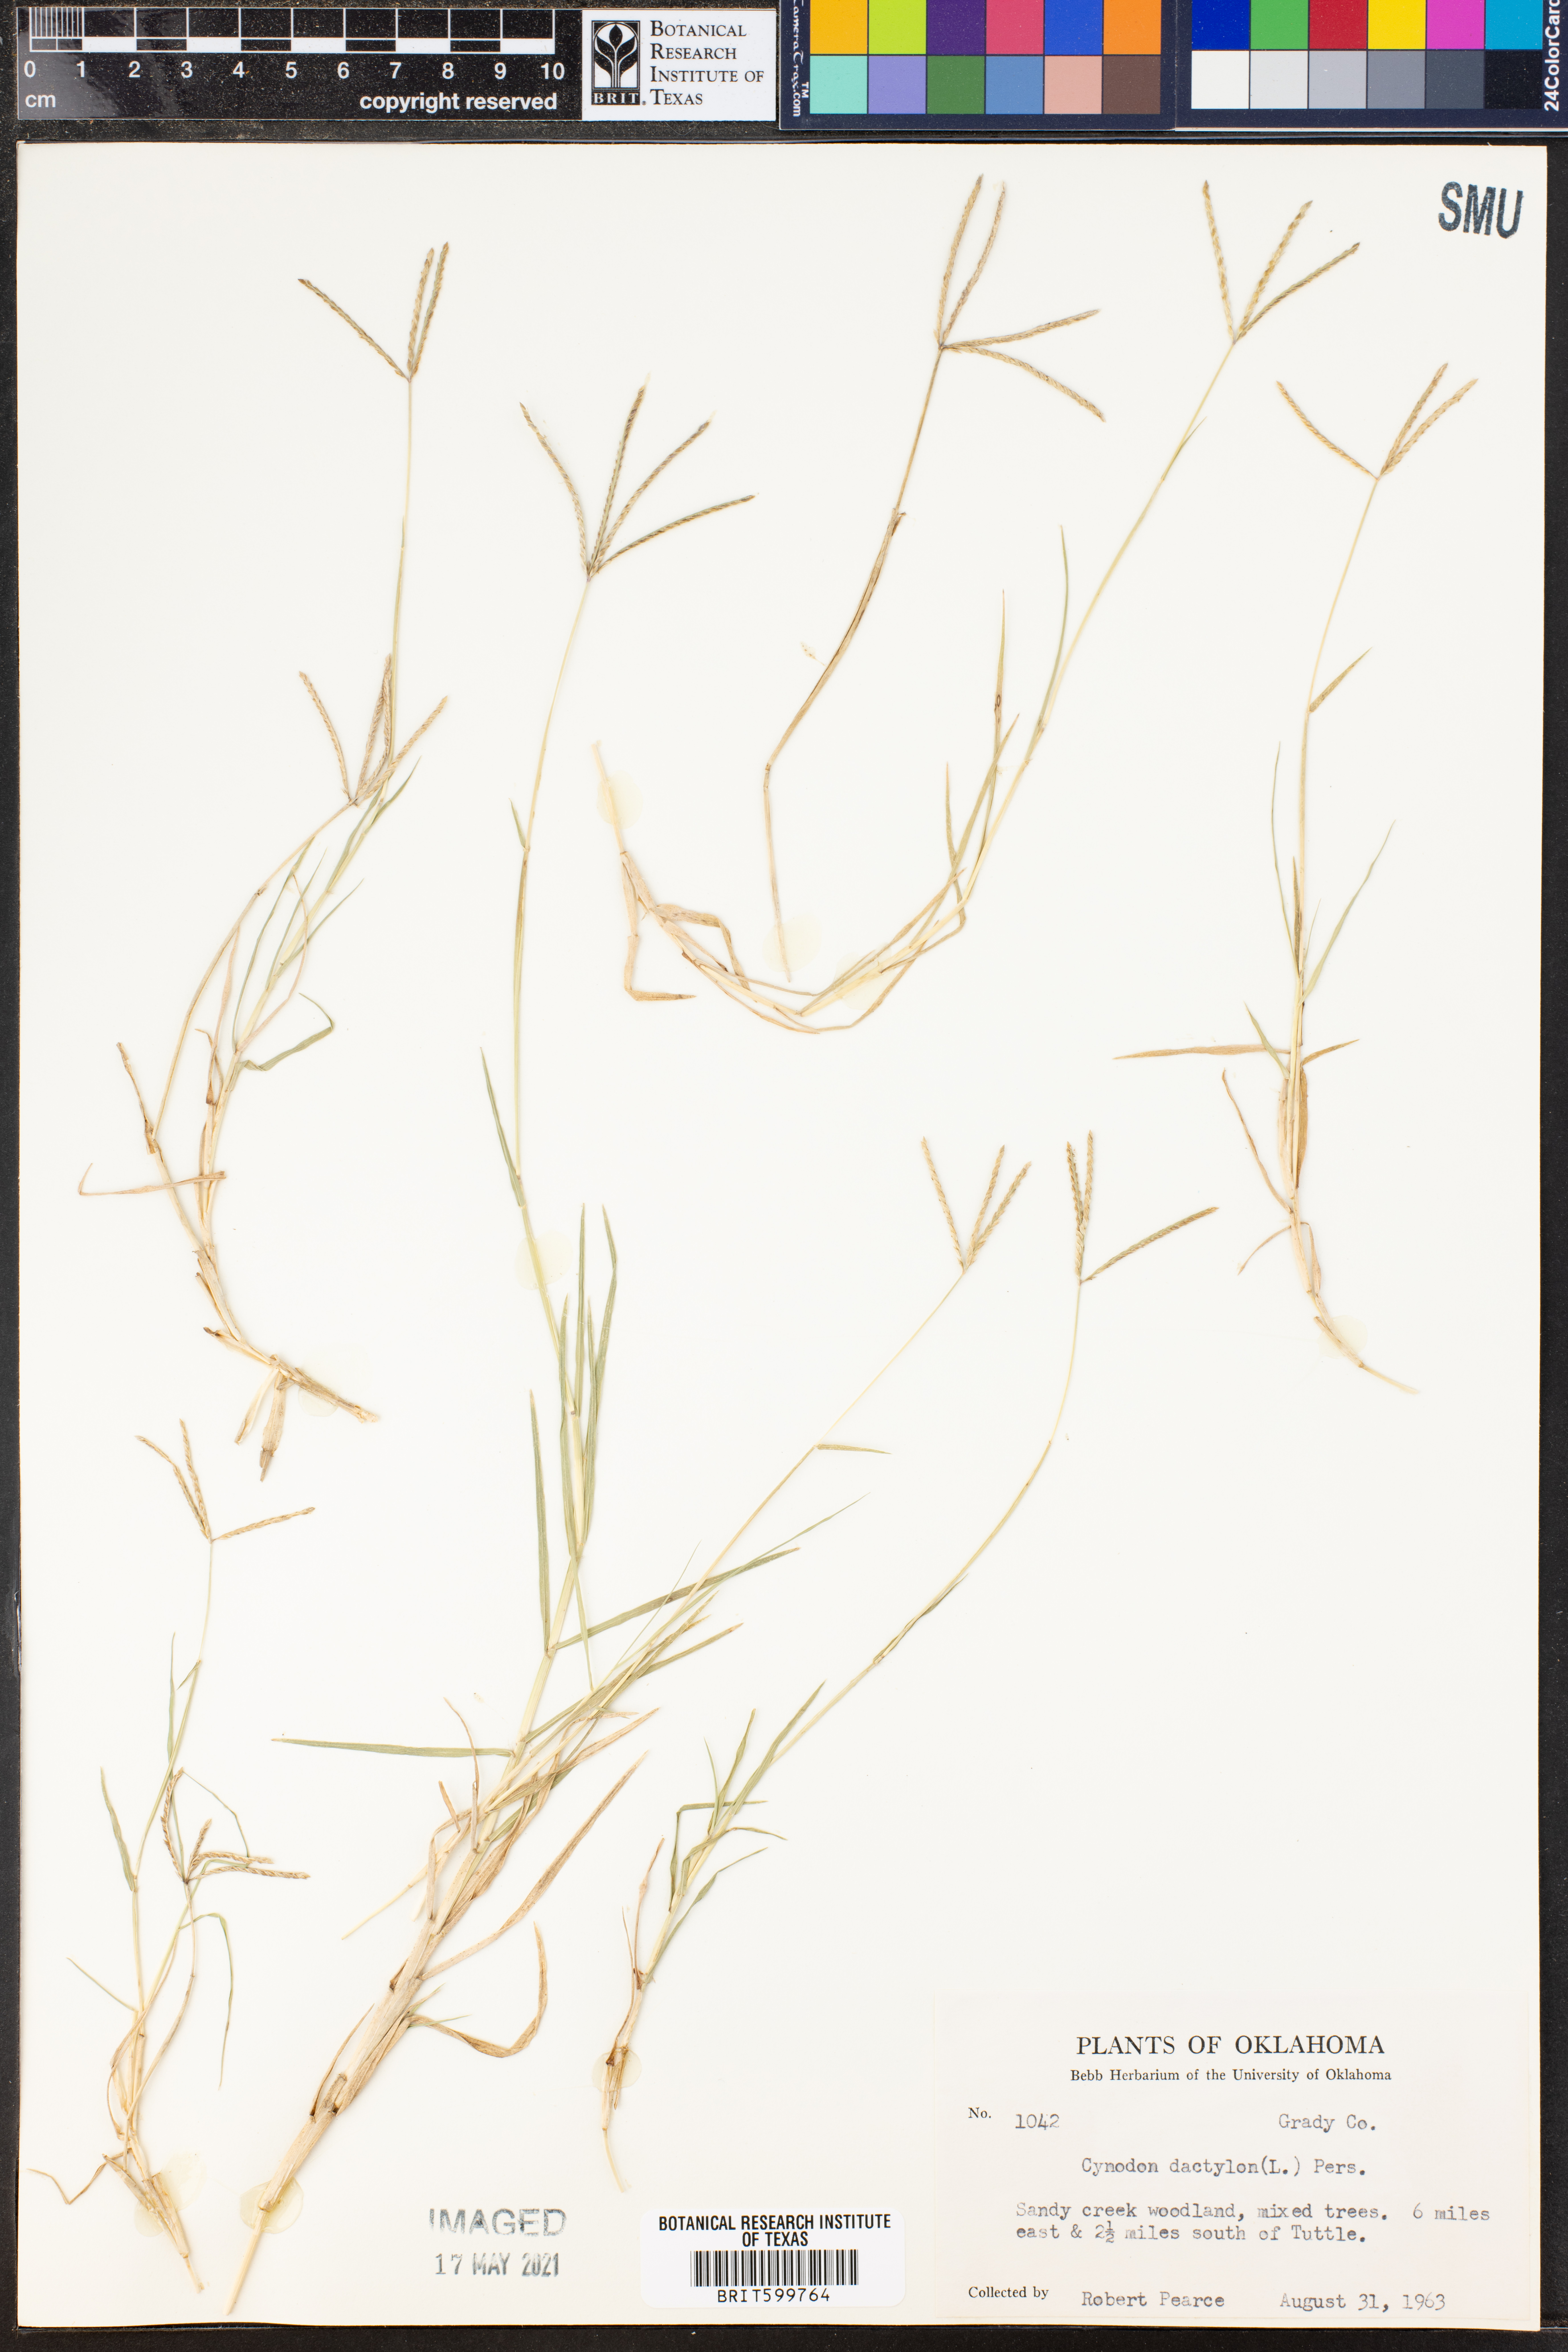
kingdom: Plantae
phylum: Tracheophyta
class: Liliopsida
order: Poales
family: Poaceae
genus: Cynodon
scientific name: Cynodon dactylon
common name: Bermuda grass
